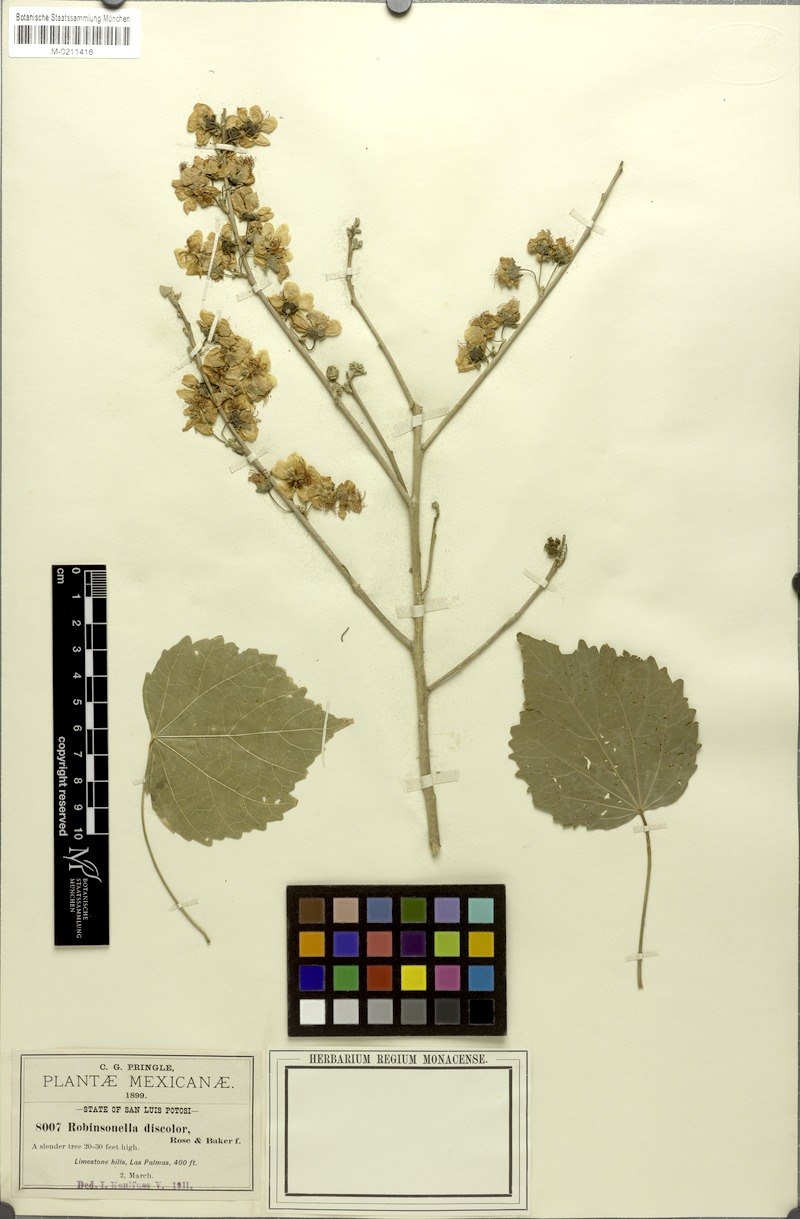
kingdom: Plantae
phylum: Tracheophyta
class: Magnoliopsida
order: Malvales
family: Malvaceae
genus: Robinsonella
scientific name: Robinsonella discolor
